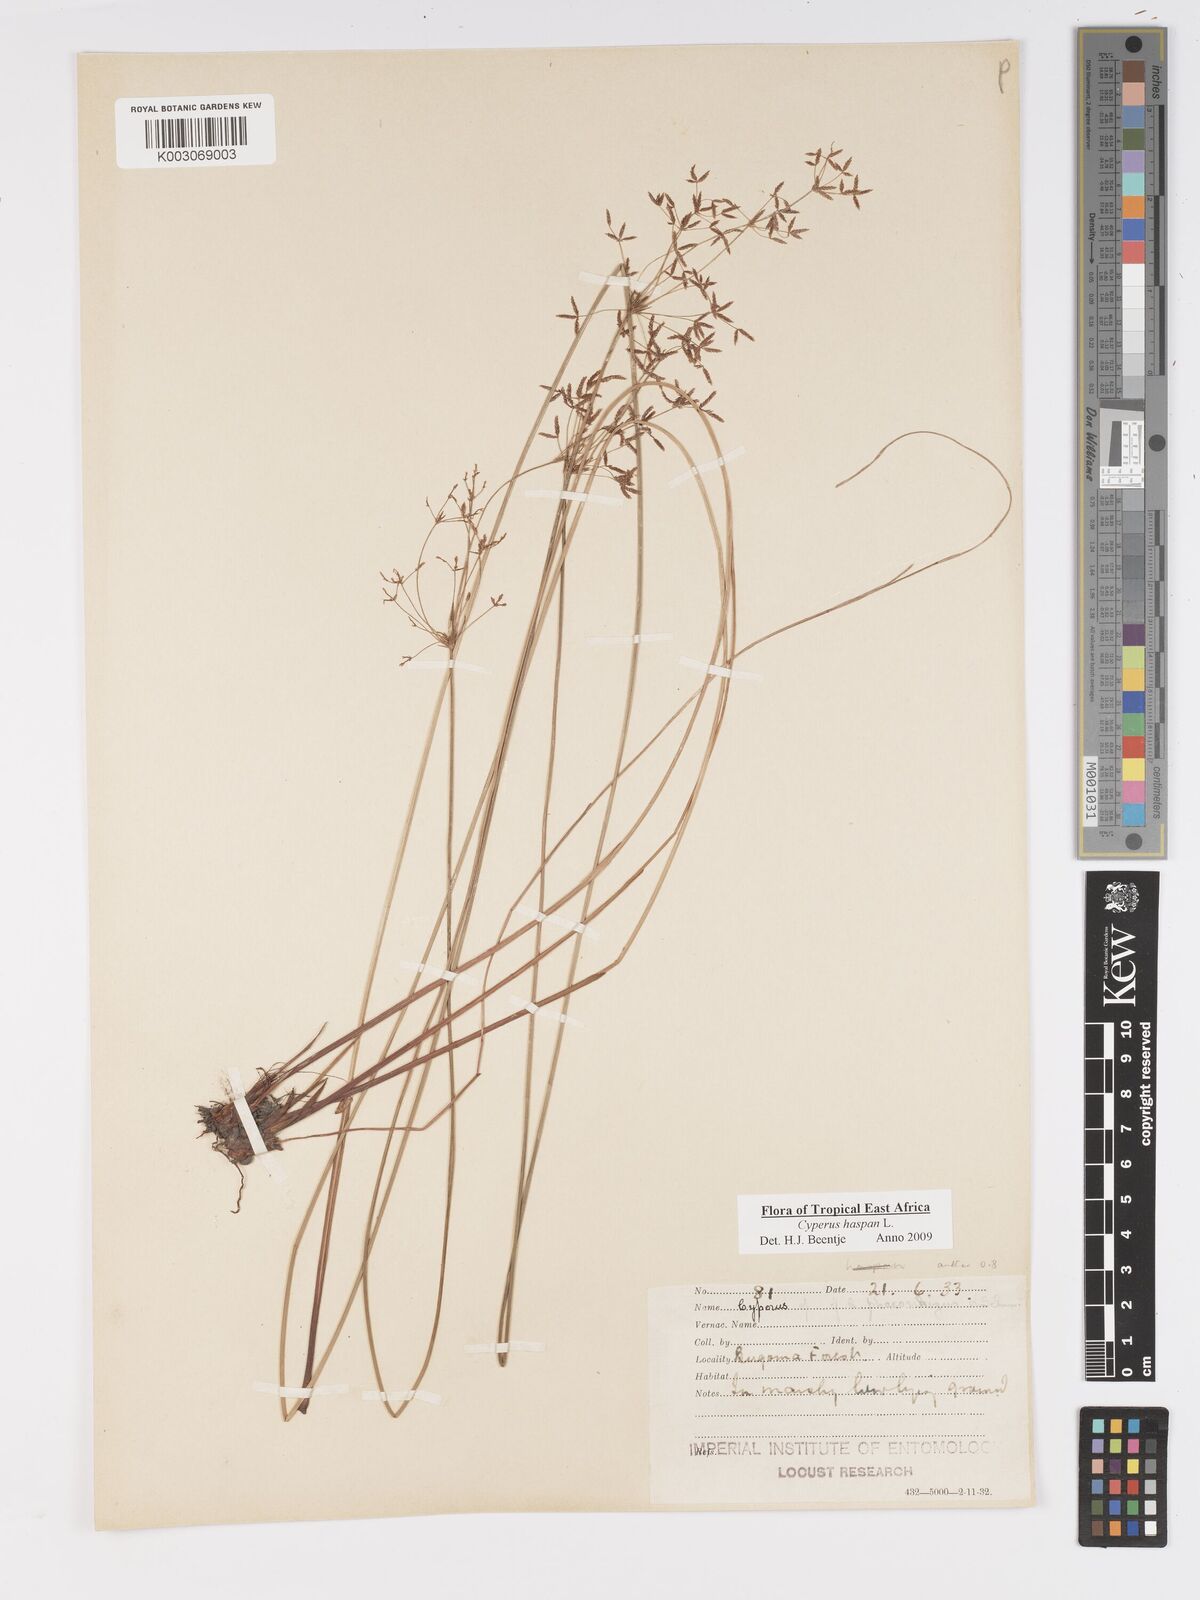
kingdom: Plantae
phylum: Tracheophyta
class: Liliopsida
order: Poales
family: Cyperaceae
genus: Cyperus
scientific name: Cyperus platycaulis
